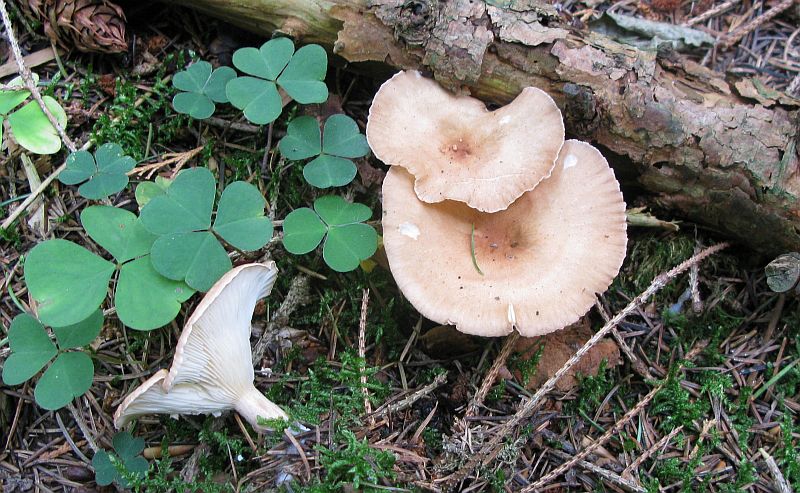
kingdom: Fungi
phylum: Basidiomycota
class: Agaricomycetes
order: Agaricales
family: Tricholomataceae
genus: Infundibulicybe
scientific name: Infundibulicybe gibba
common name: almindelig tragthat
